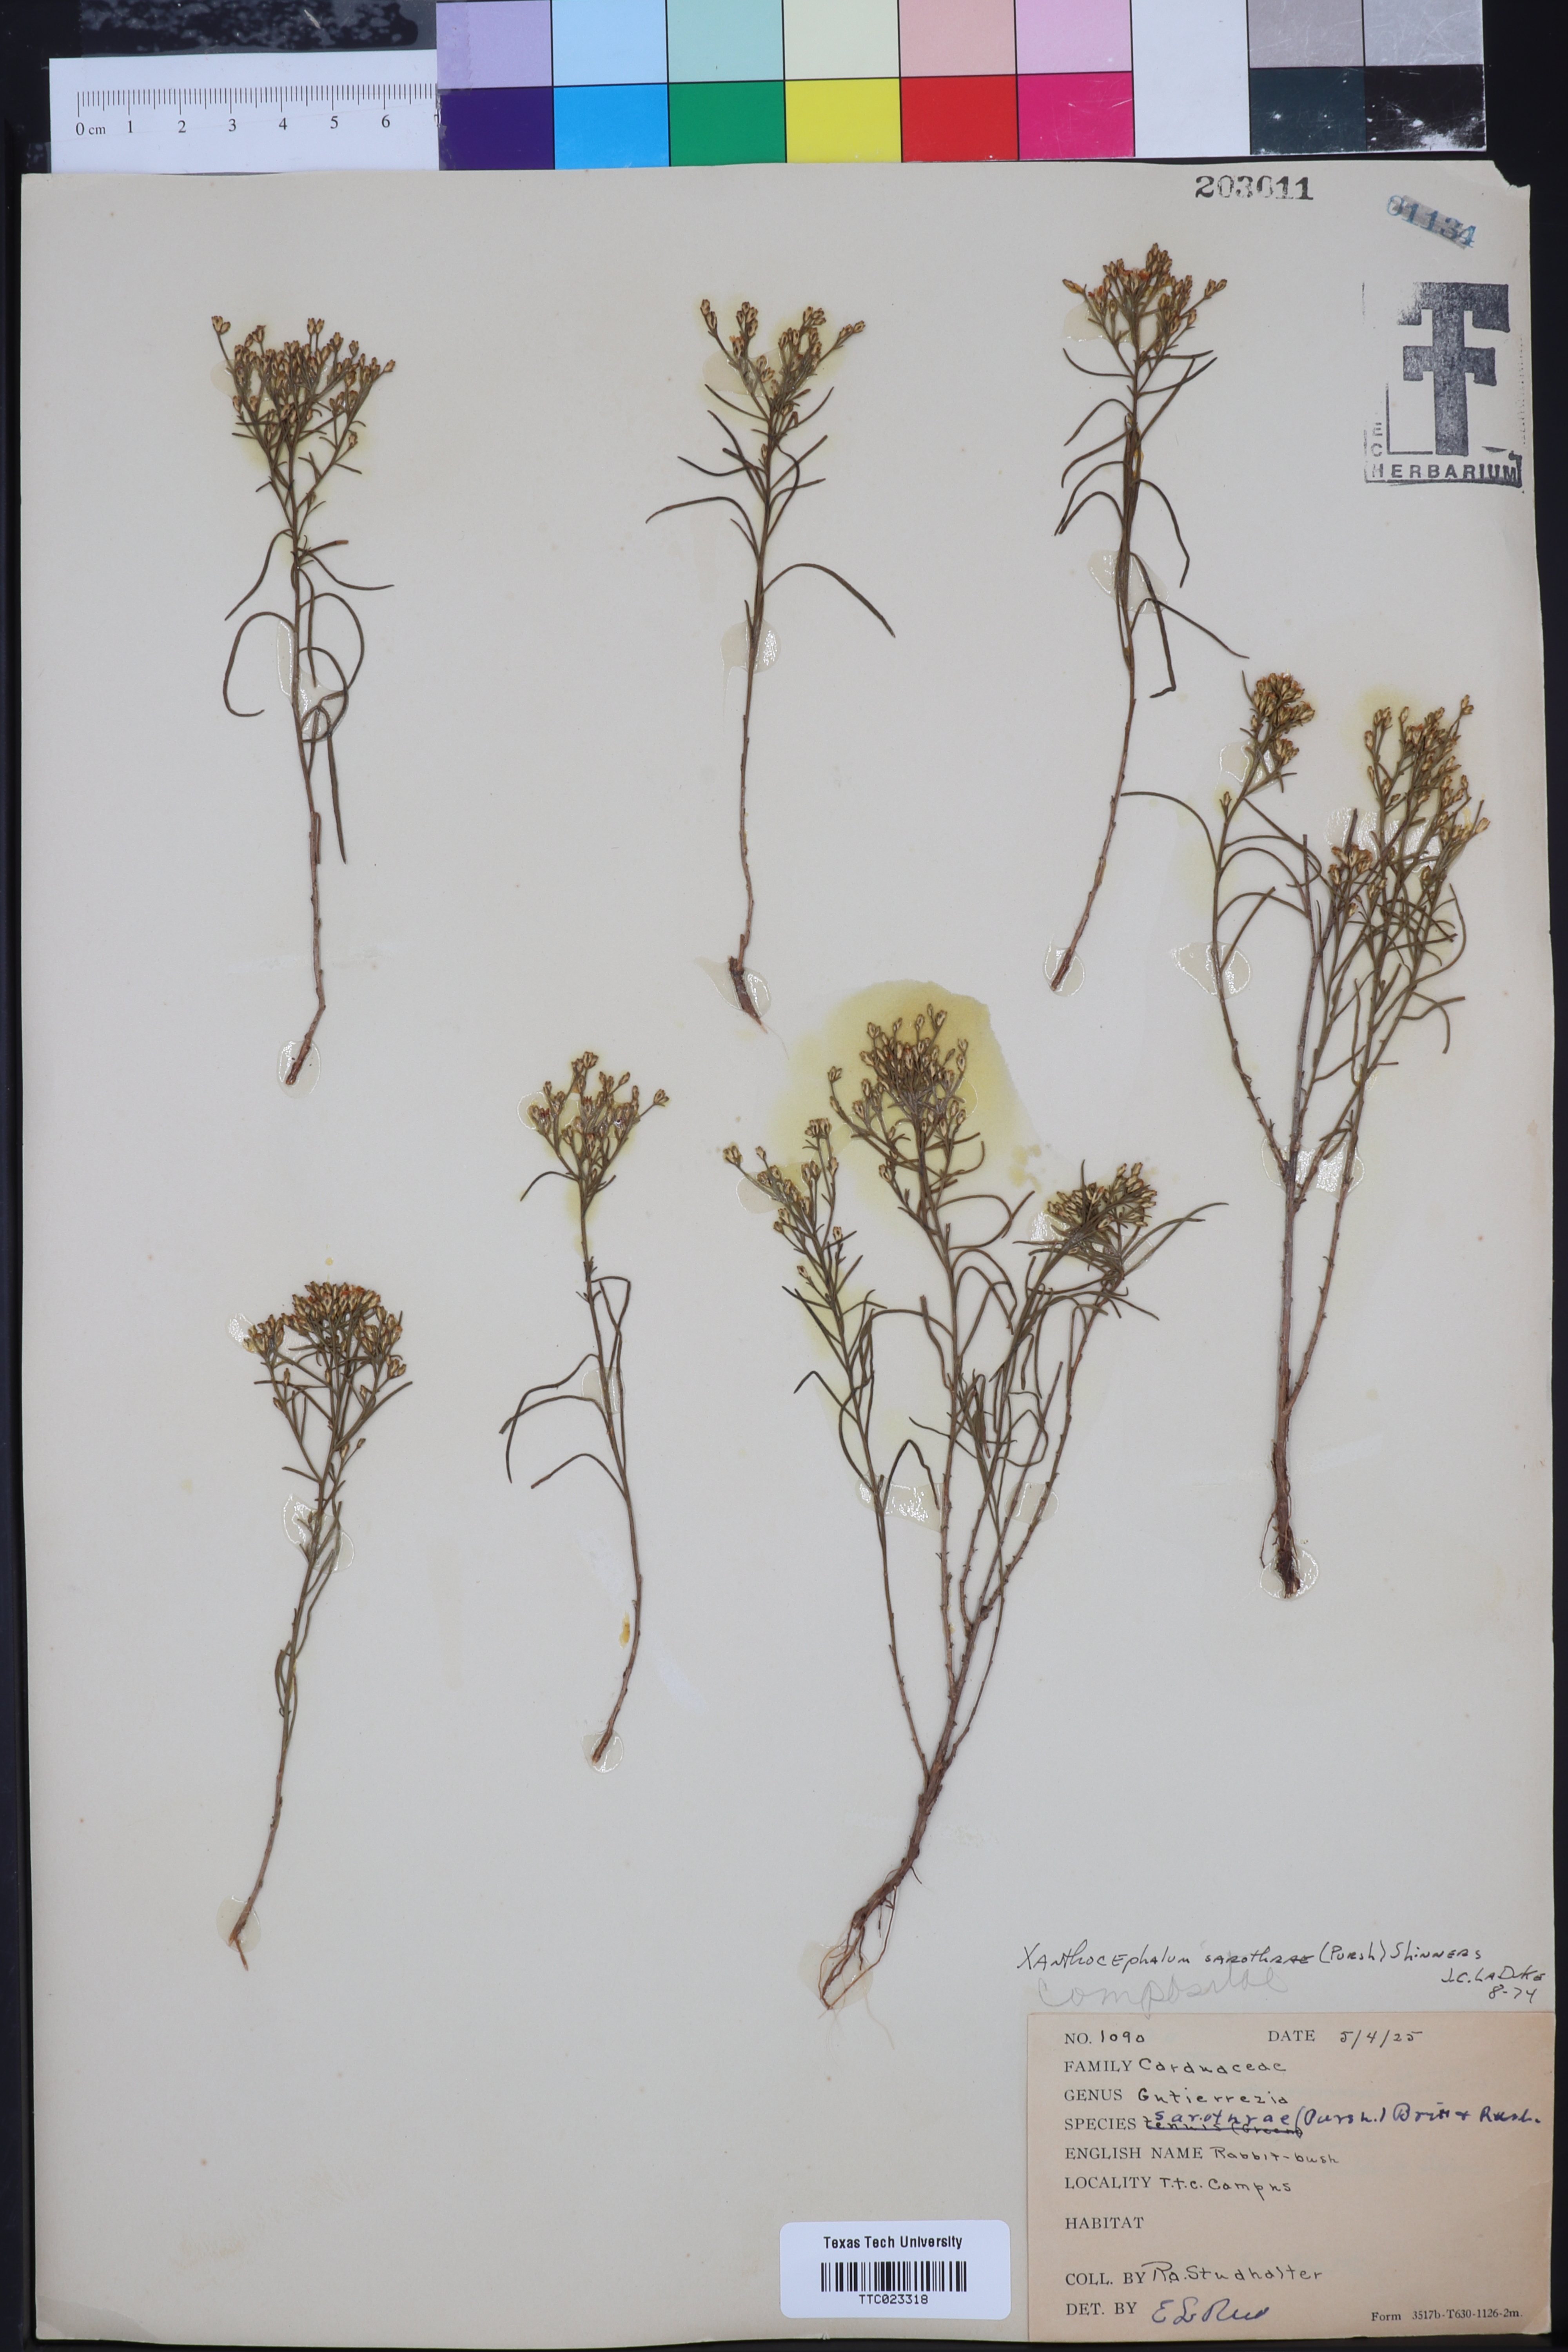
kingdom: Plantae
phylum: Tracheophyta
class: Magnoliopsida
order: Asterales
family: Asteraceae
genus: Gutierrezia
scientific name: Gutierrezia sarothrae
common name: Broom snakeweed
